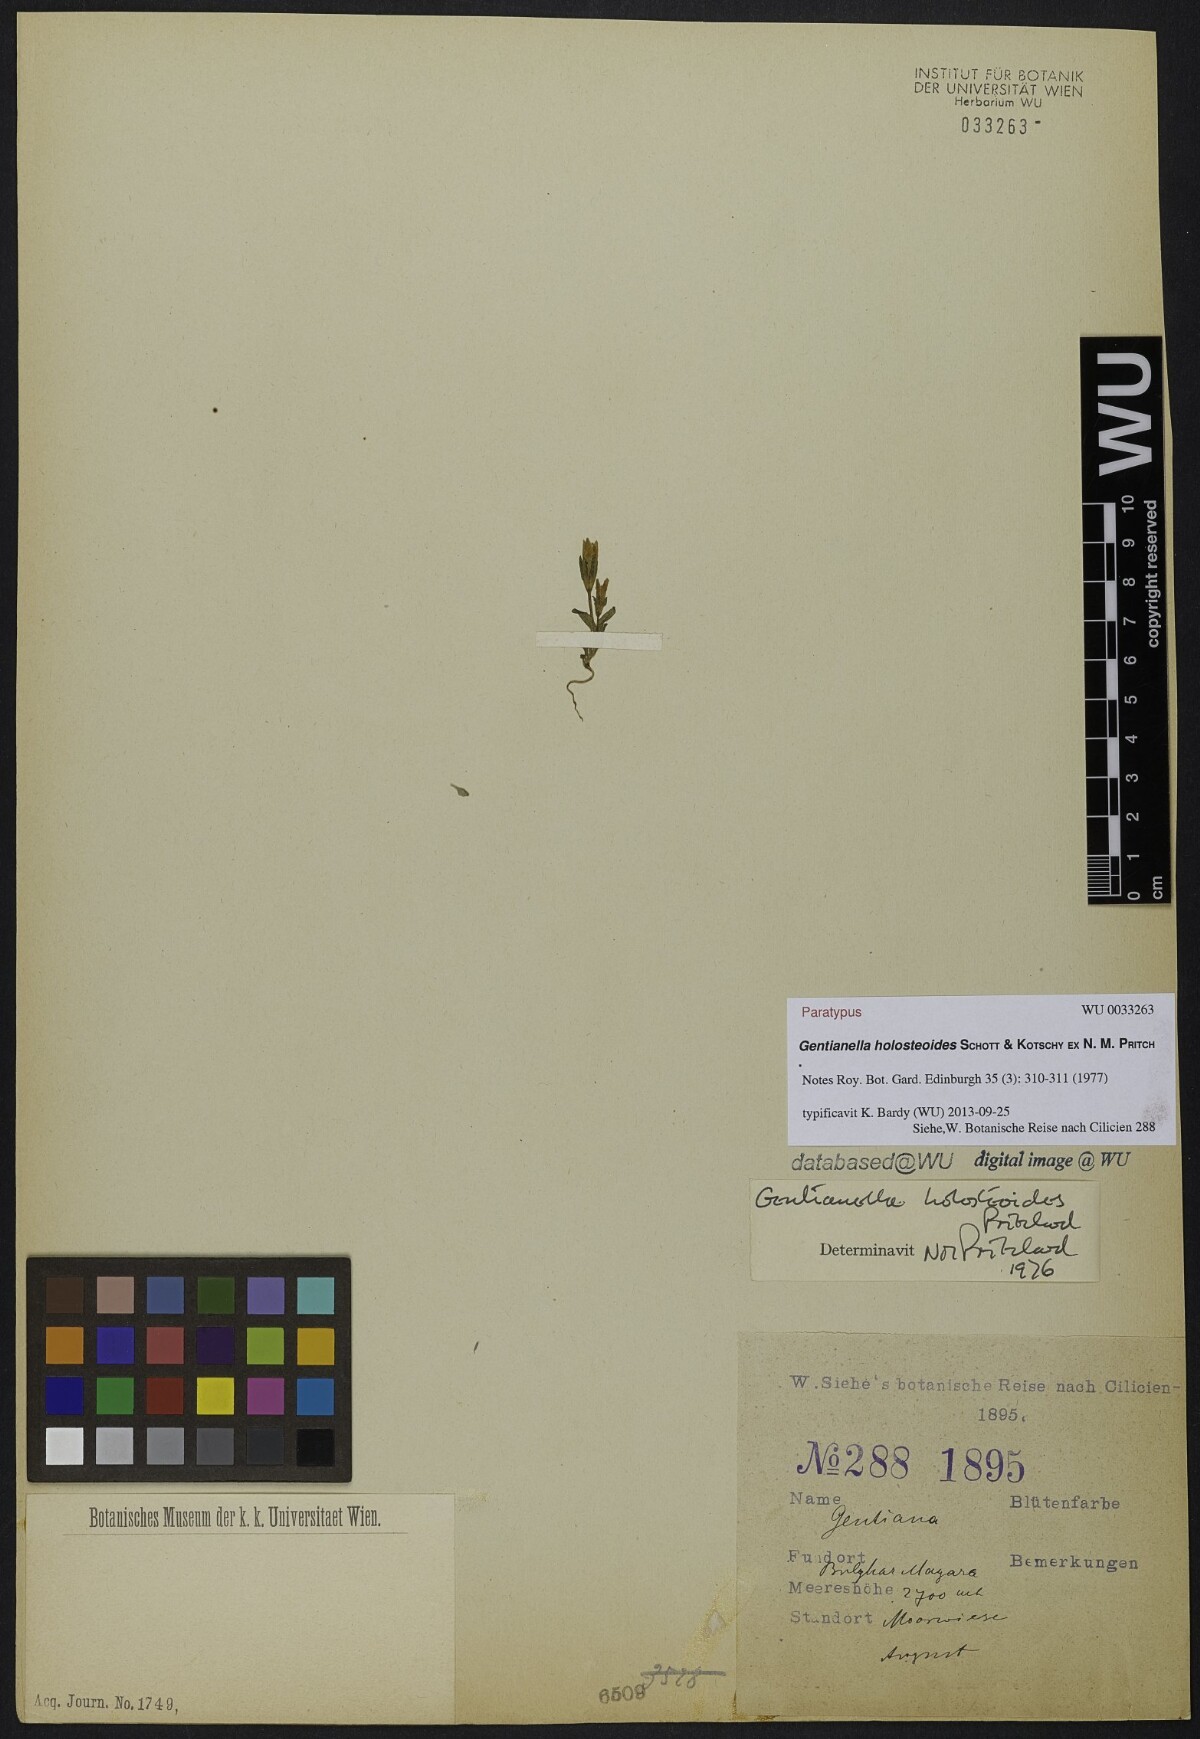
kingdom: Plantae
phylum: Tracheophyta
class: Magnoliopsida
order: Gentianales
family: Gentianaceae
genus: Gentianella
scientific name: Gentianella holosteoides
